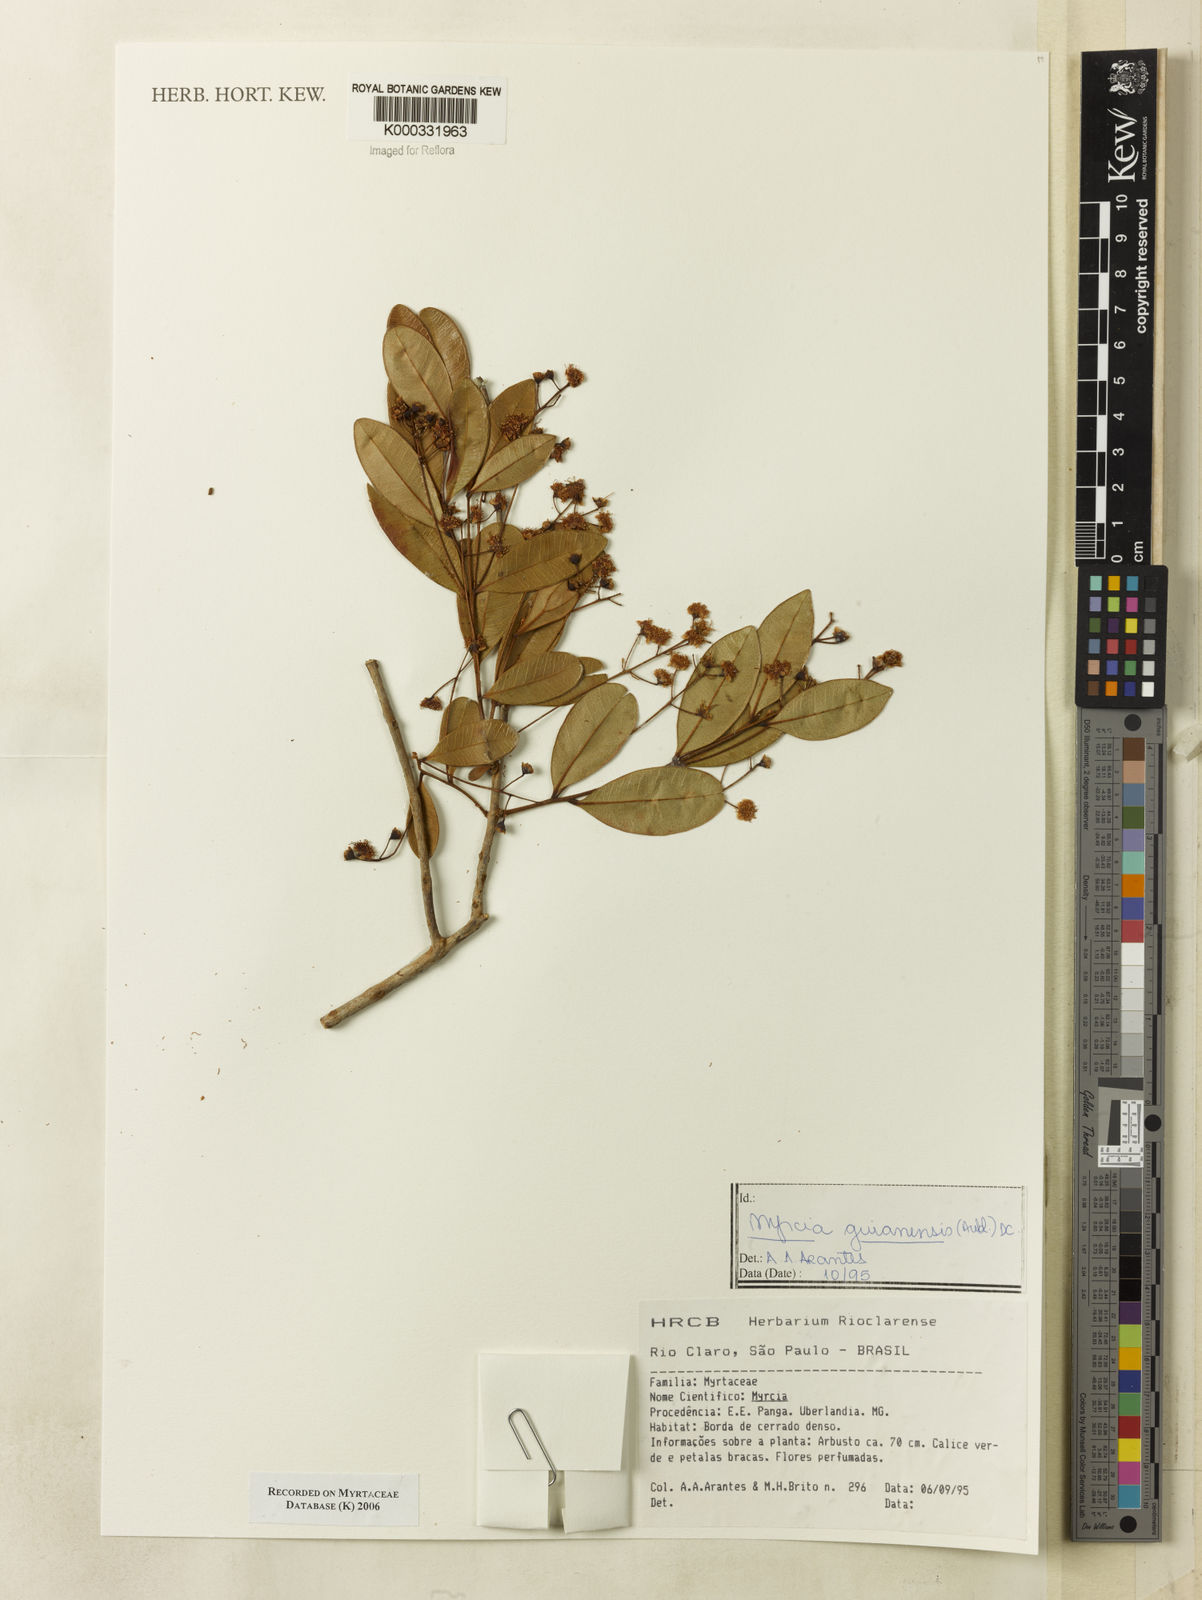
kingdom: Plantae
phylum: Tracheophyta
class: Magnoliopsida
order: Myrtales
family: Myrtaceae
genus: Myrcia
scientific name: Myrcia guianensis
